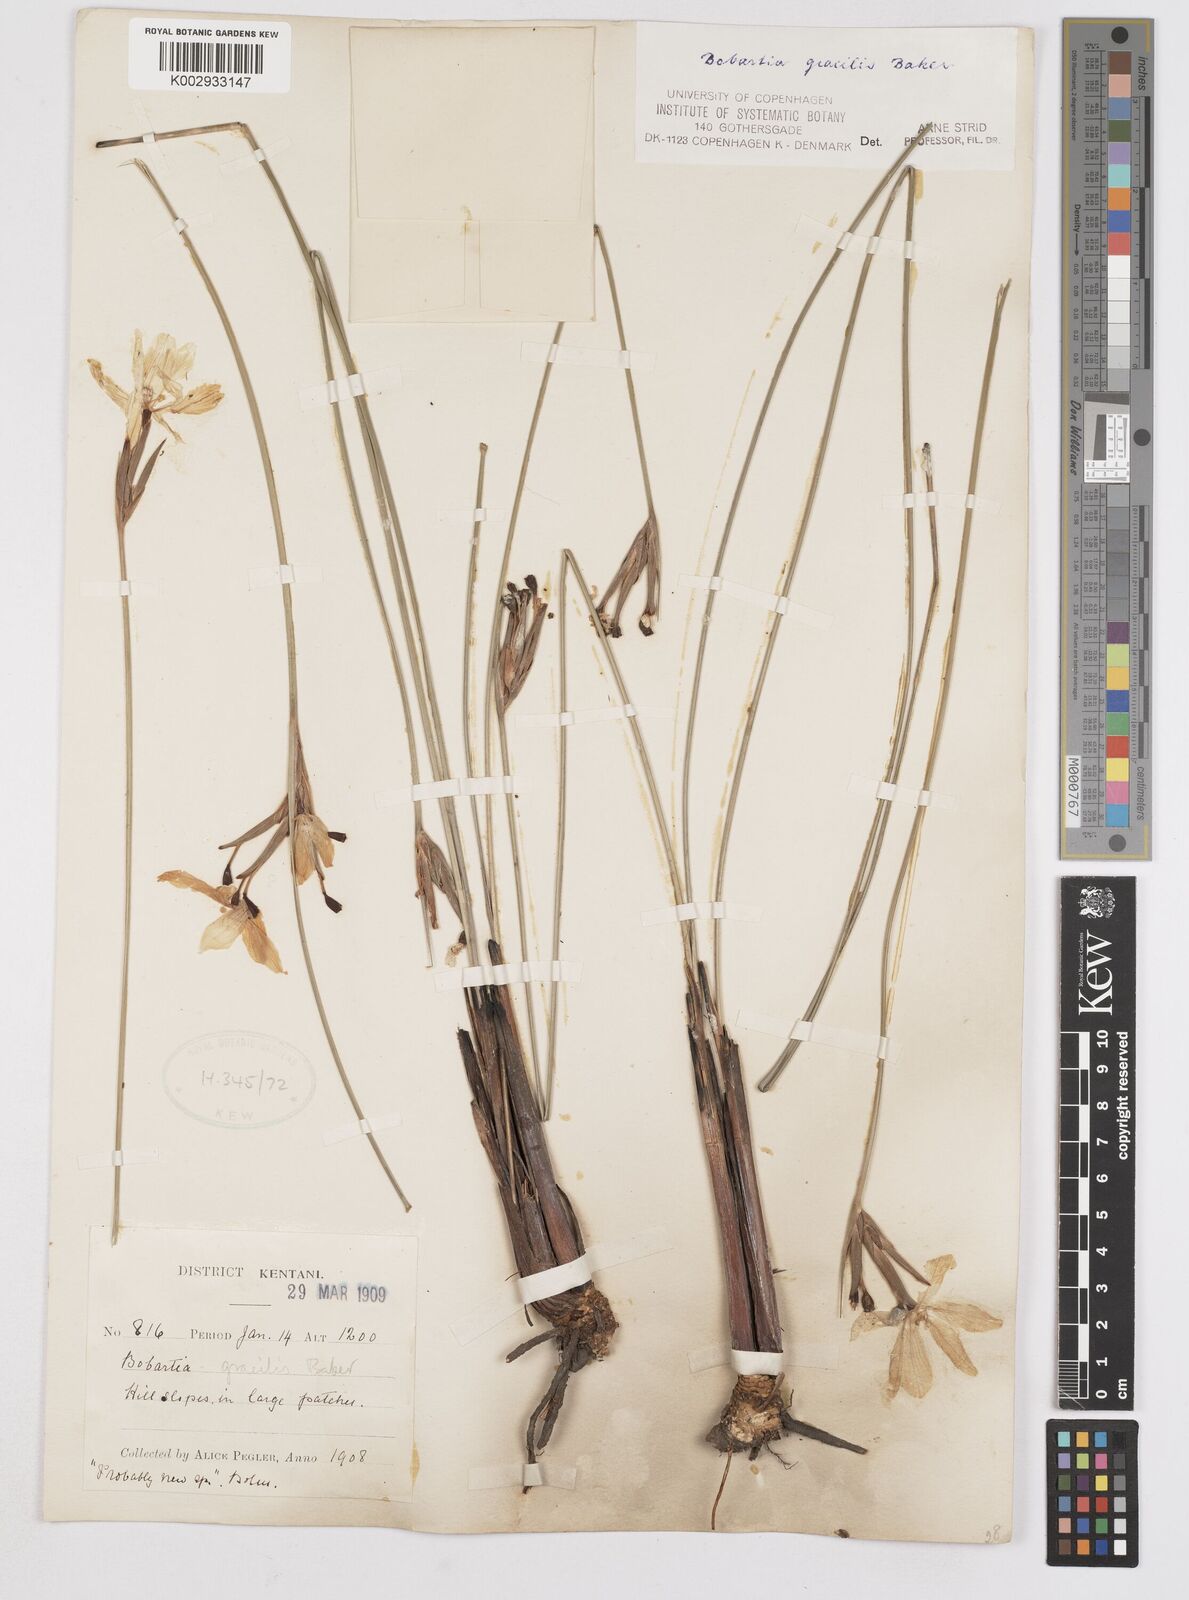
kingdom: Plantae
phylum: Tracheophyta
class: Liliopsida
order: Asparagales
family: Iridaceae
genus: Bobartia
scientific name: Bobartia gracilis
